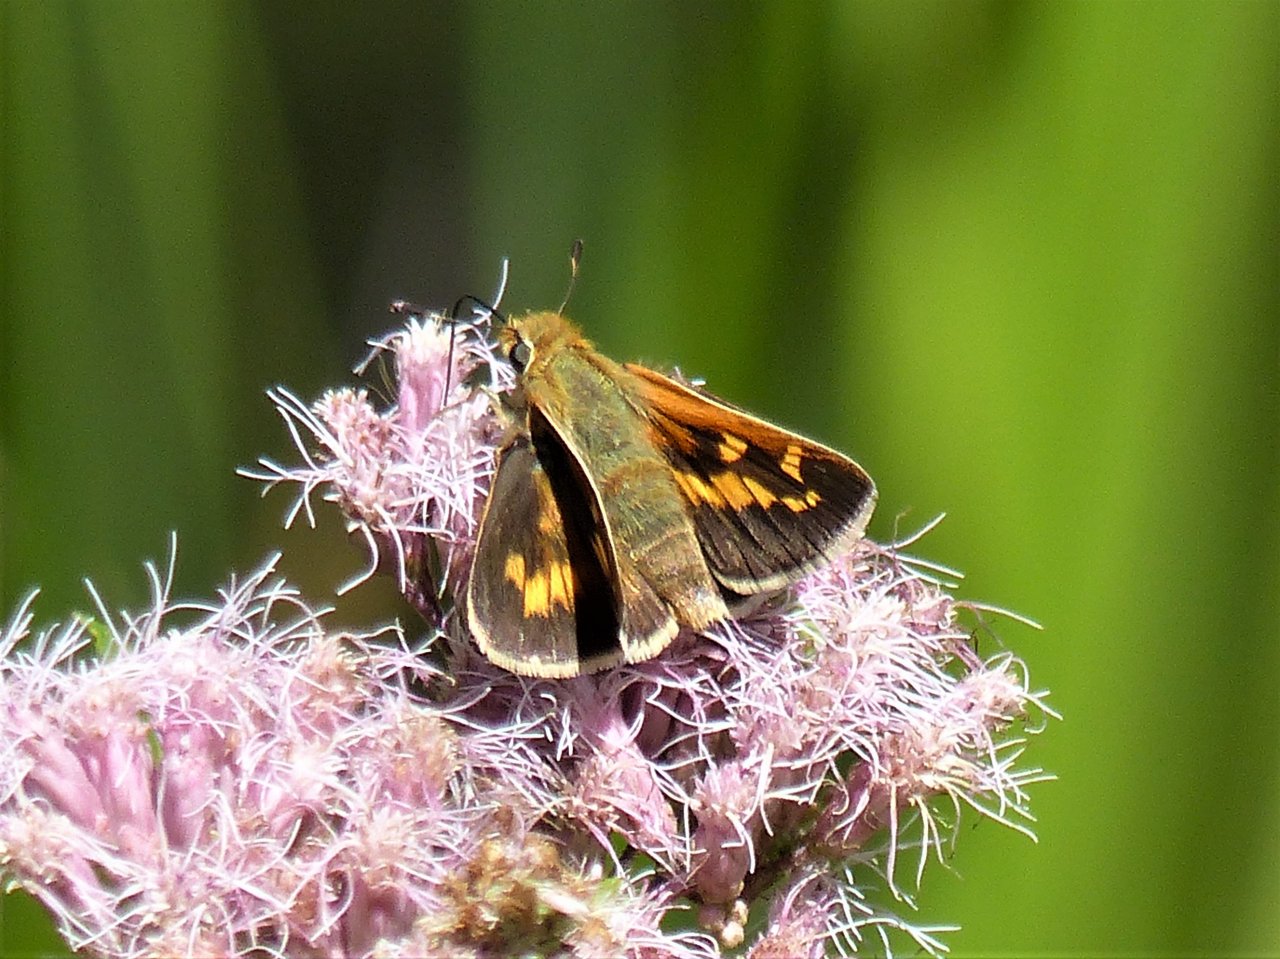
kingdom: Animalia
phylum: Arthropoda
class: Insecta
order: Lepidoptera
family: Hesperiidae
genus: Hesperia
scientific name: Hesperia leonardus
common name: Leonard's Skipper
